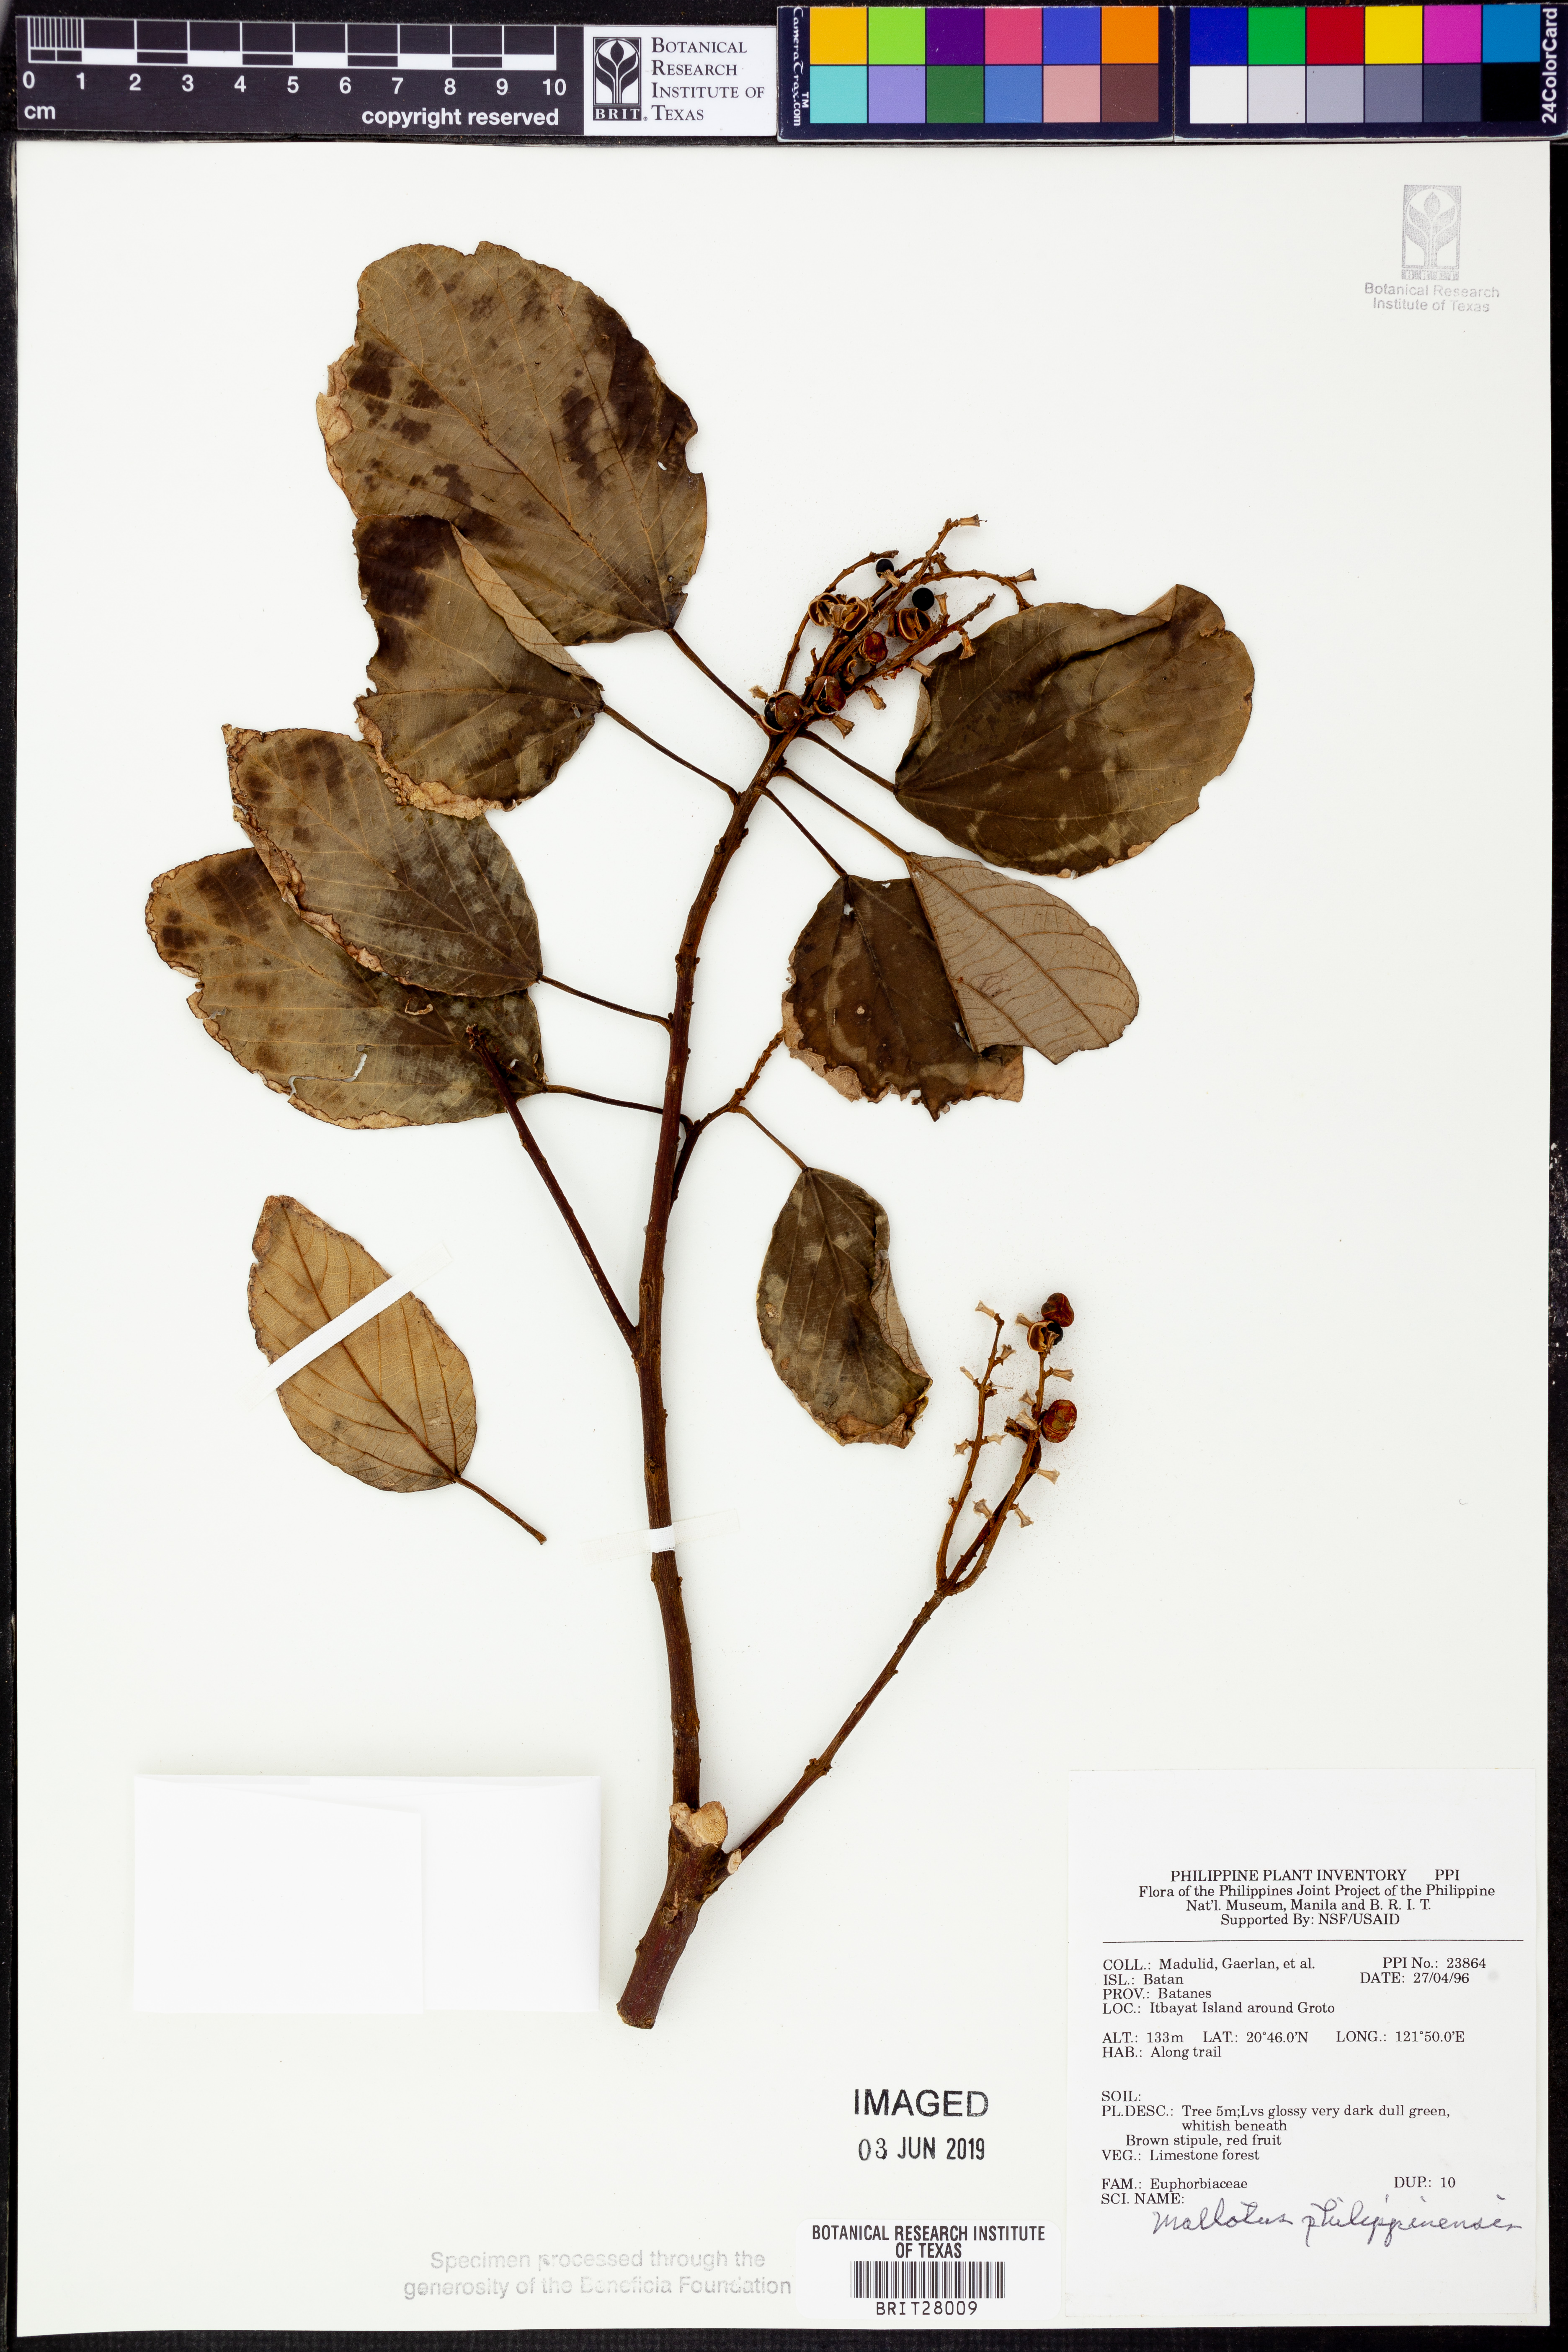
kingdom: Plantae
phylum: Tracheophyta
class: Magnoliopsida
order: Malpighiales
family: Euphorbiaceae
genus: Mallotus
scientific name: Mallotus philippensis
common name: Kamala tree
